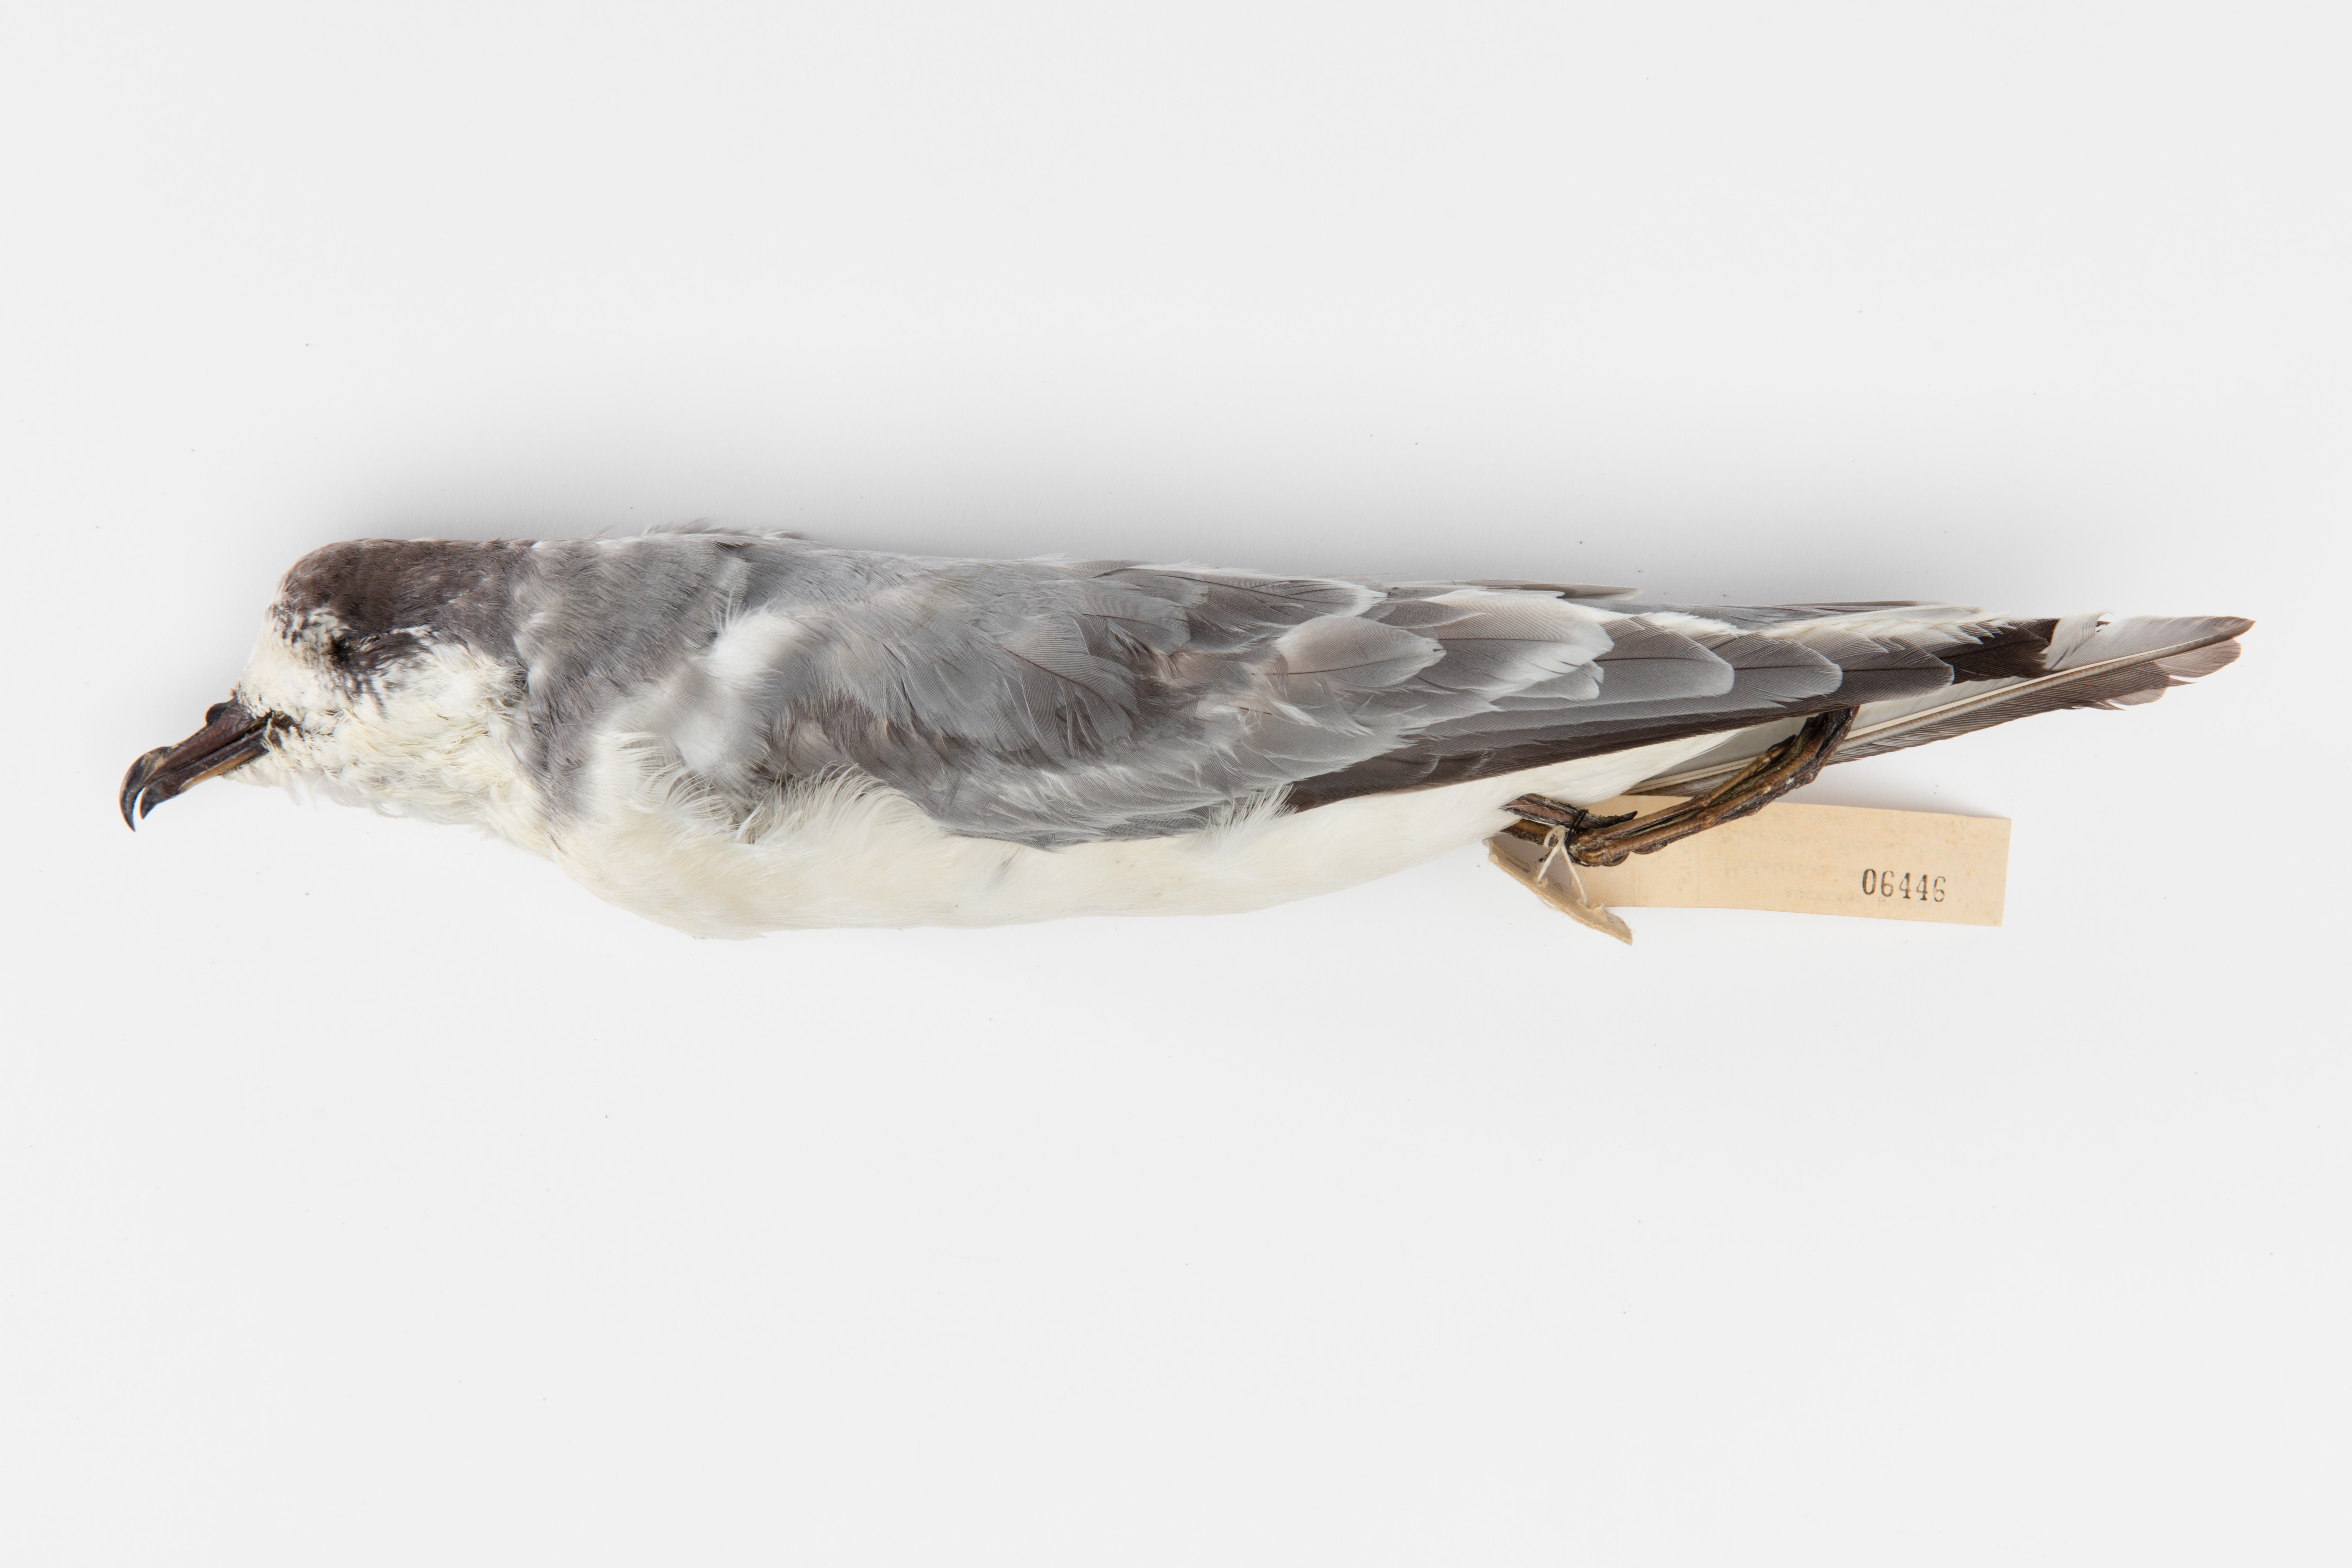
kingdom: Animalia
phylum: Chordata
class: Aves
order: Procellariiformes
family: Procellariidae
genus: Halobaena
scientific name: Halobaena caerulea
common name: Blue petrel
